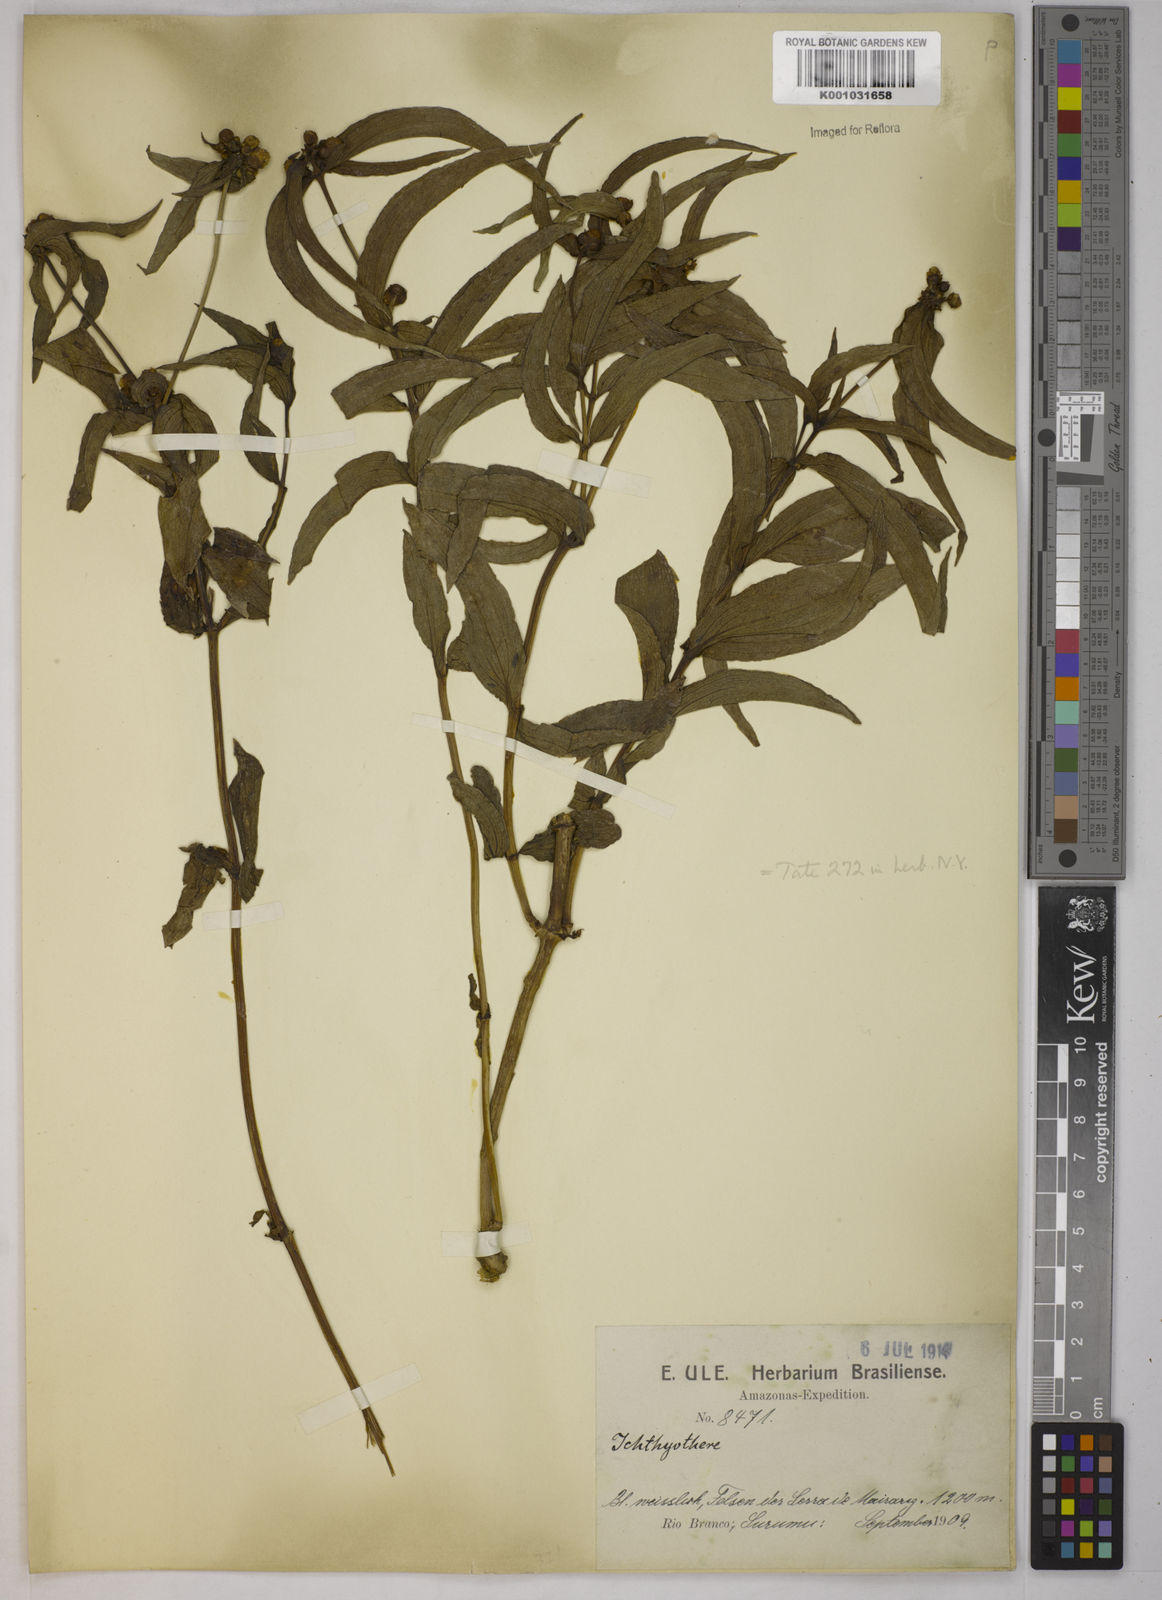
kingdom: Plantae
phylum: Tracheophyta
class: Magnoliopsida
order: Asterales
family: Asteraceae
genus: Ichthyothere
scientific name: Ichthyothere
